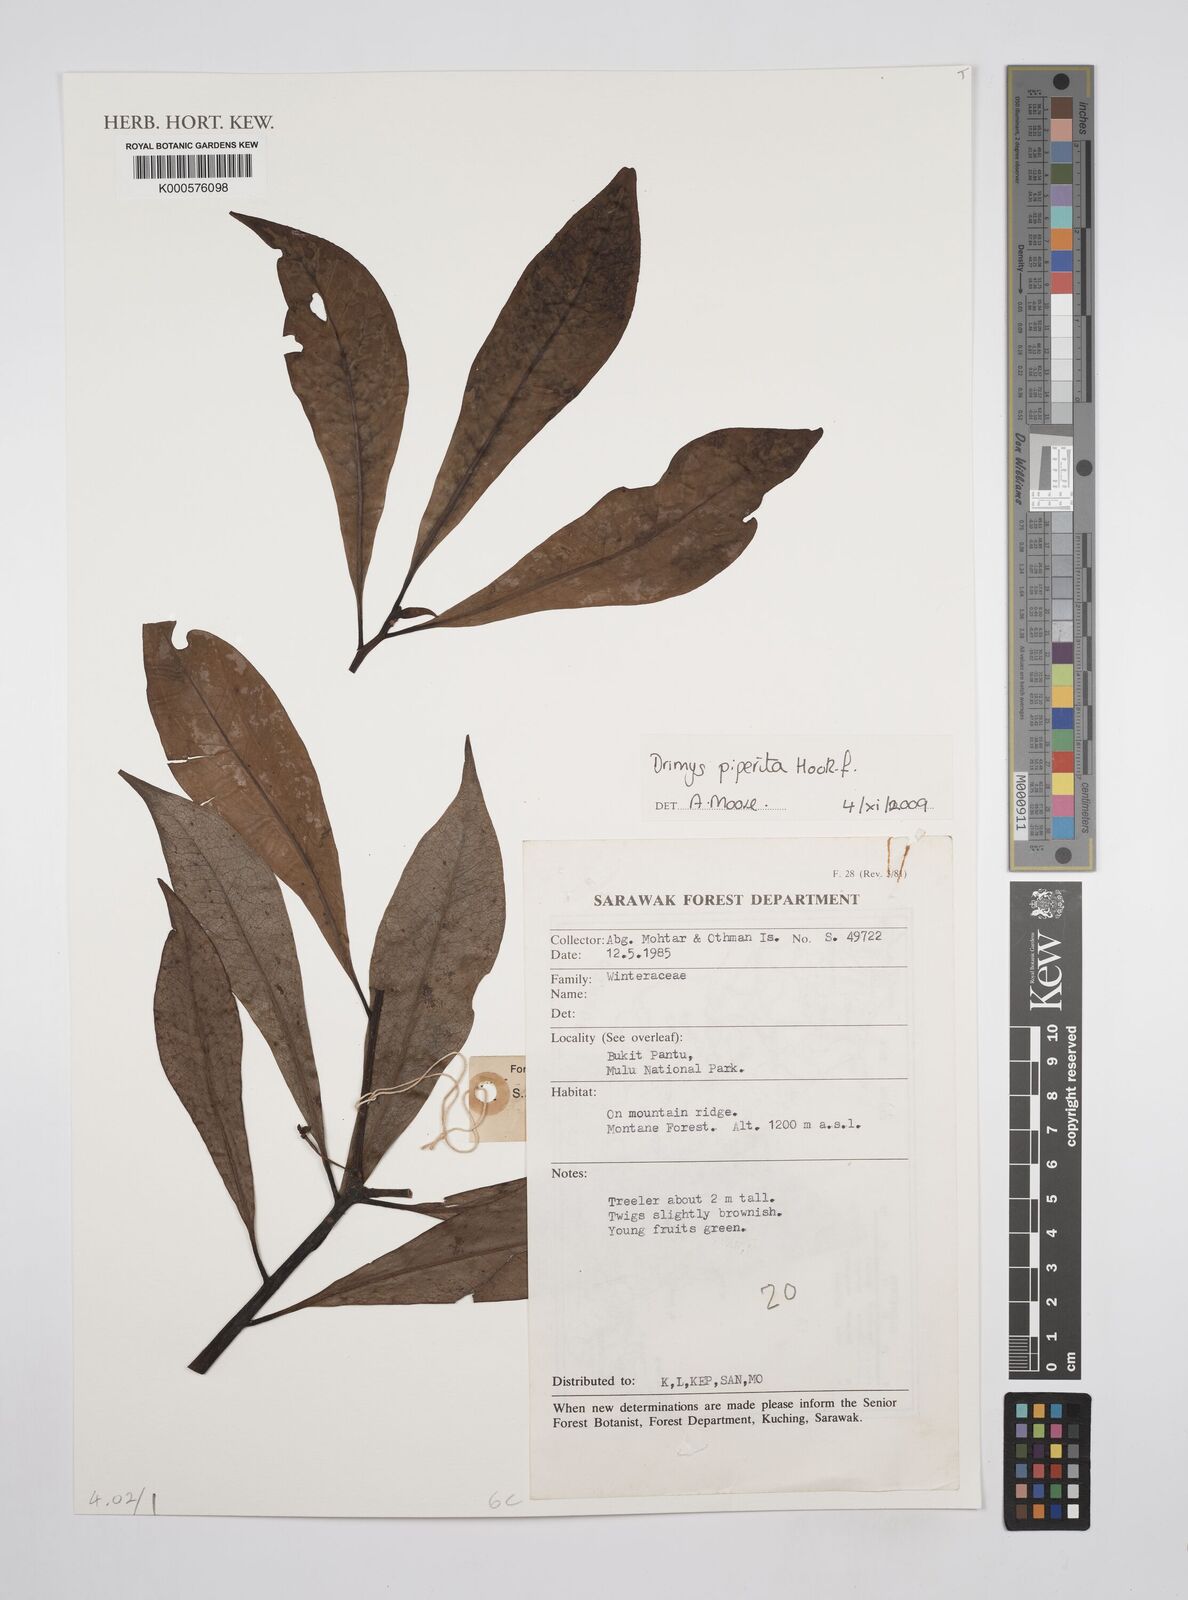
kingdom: Plantae
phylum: Tracheophyta
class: Magnoliopsida
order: Canellales
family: Winteraceae
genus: Drimys
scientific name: Drimys piperita
